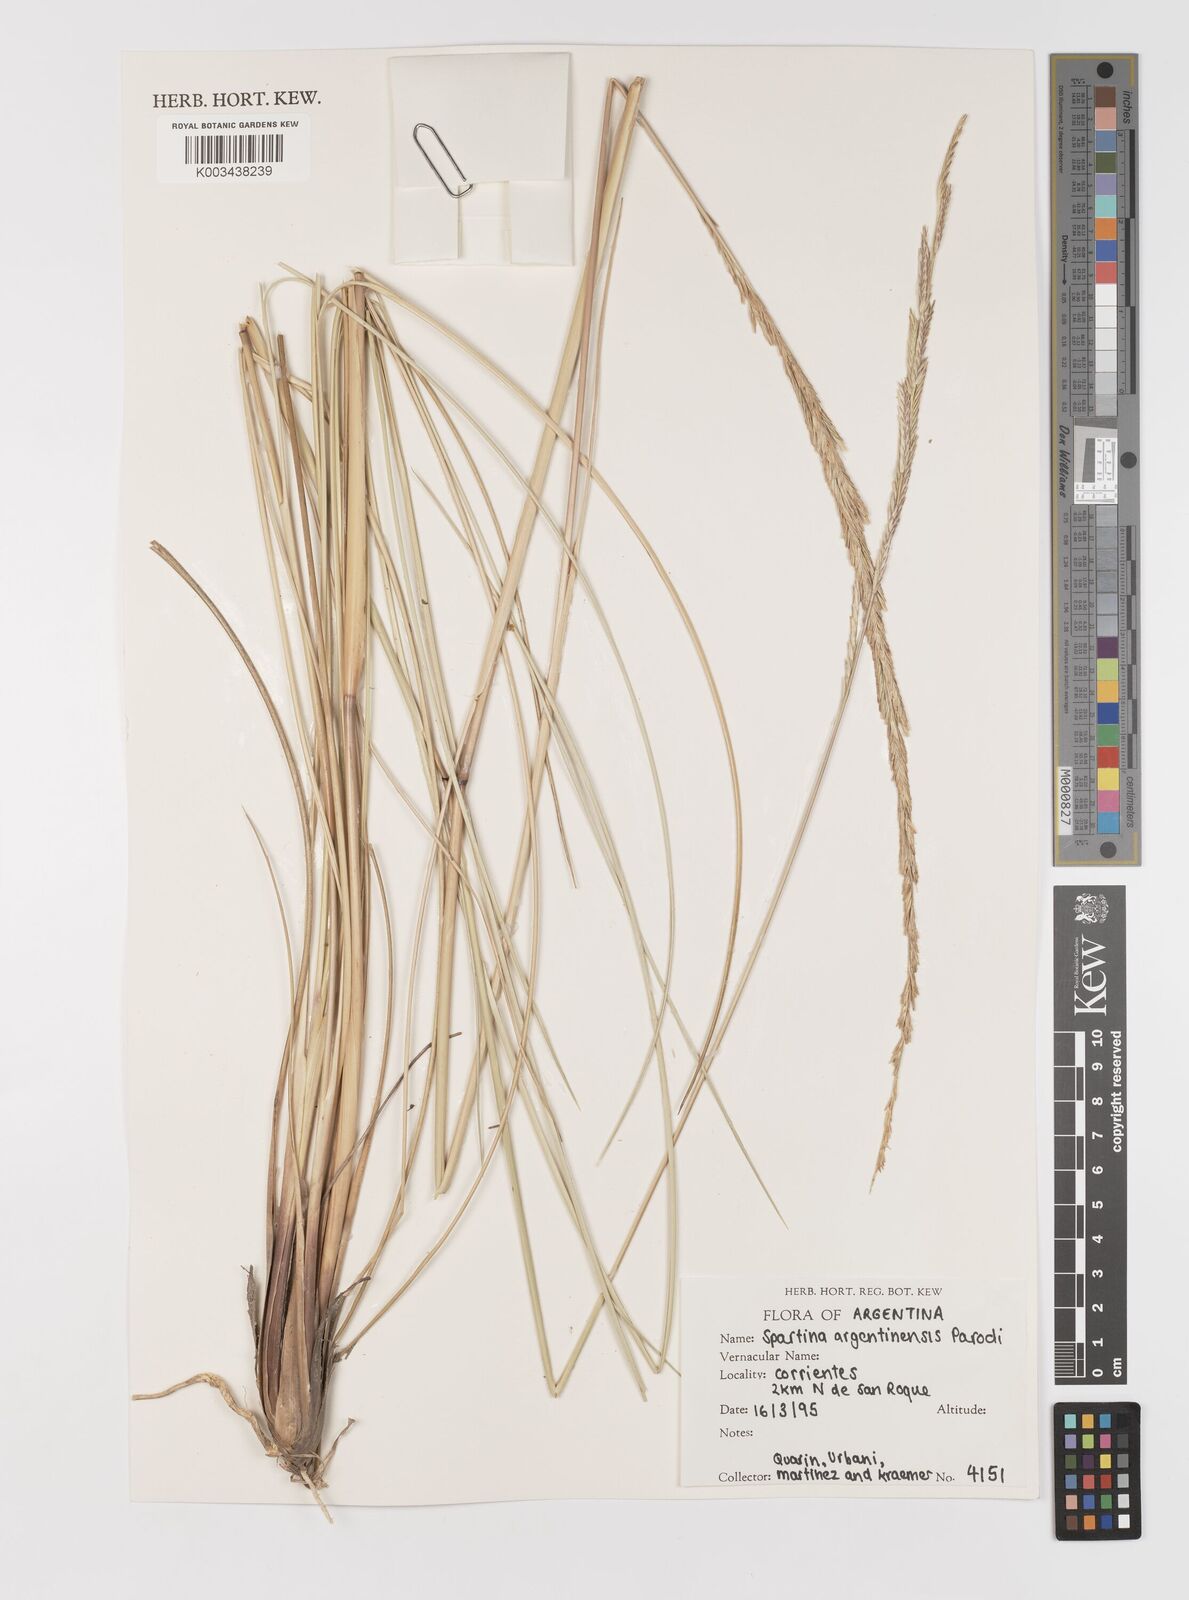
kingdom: Plantae
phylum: Tracheophyta
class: Liliopsida
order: Poales
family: Poaceae
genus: Sporobolus
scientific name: Sporobolus spartinae
